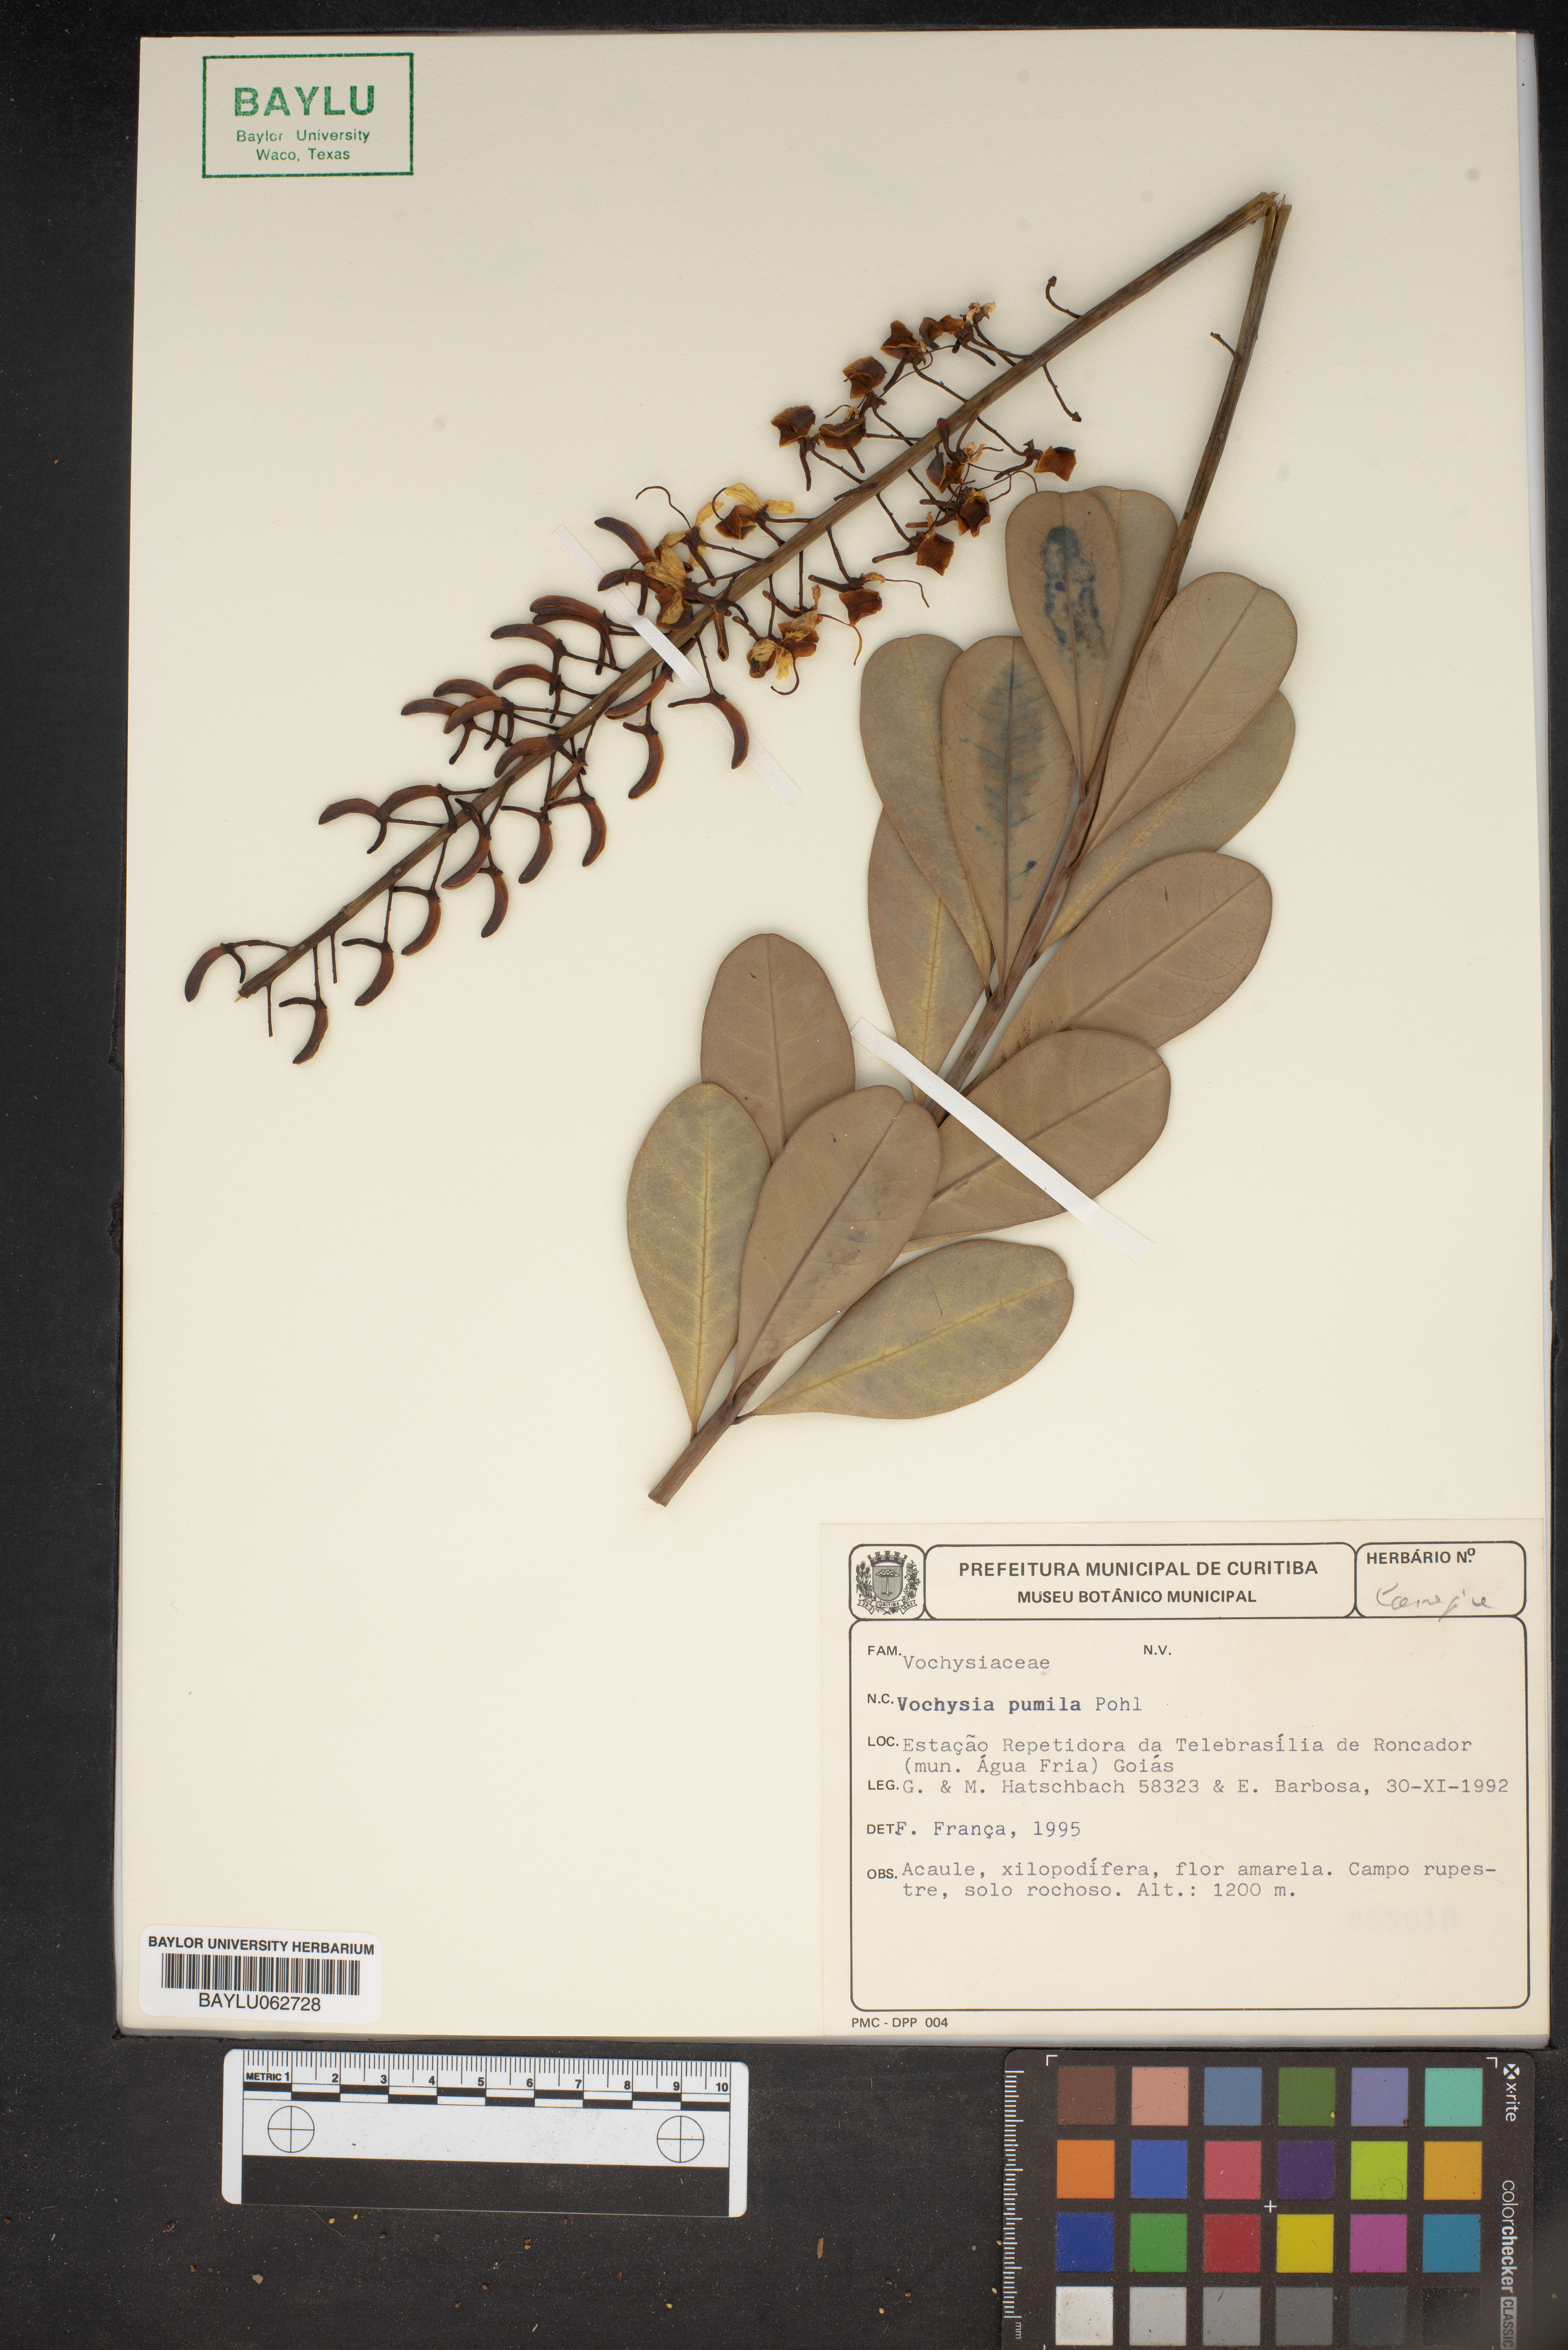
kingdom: Plantae
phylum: Tracheophyta
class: Magnoliopsida
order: Myrtales
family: Vochysiaceae
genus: Vochysia
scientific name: Vochysia pumila
